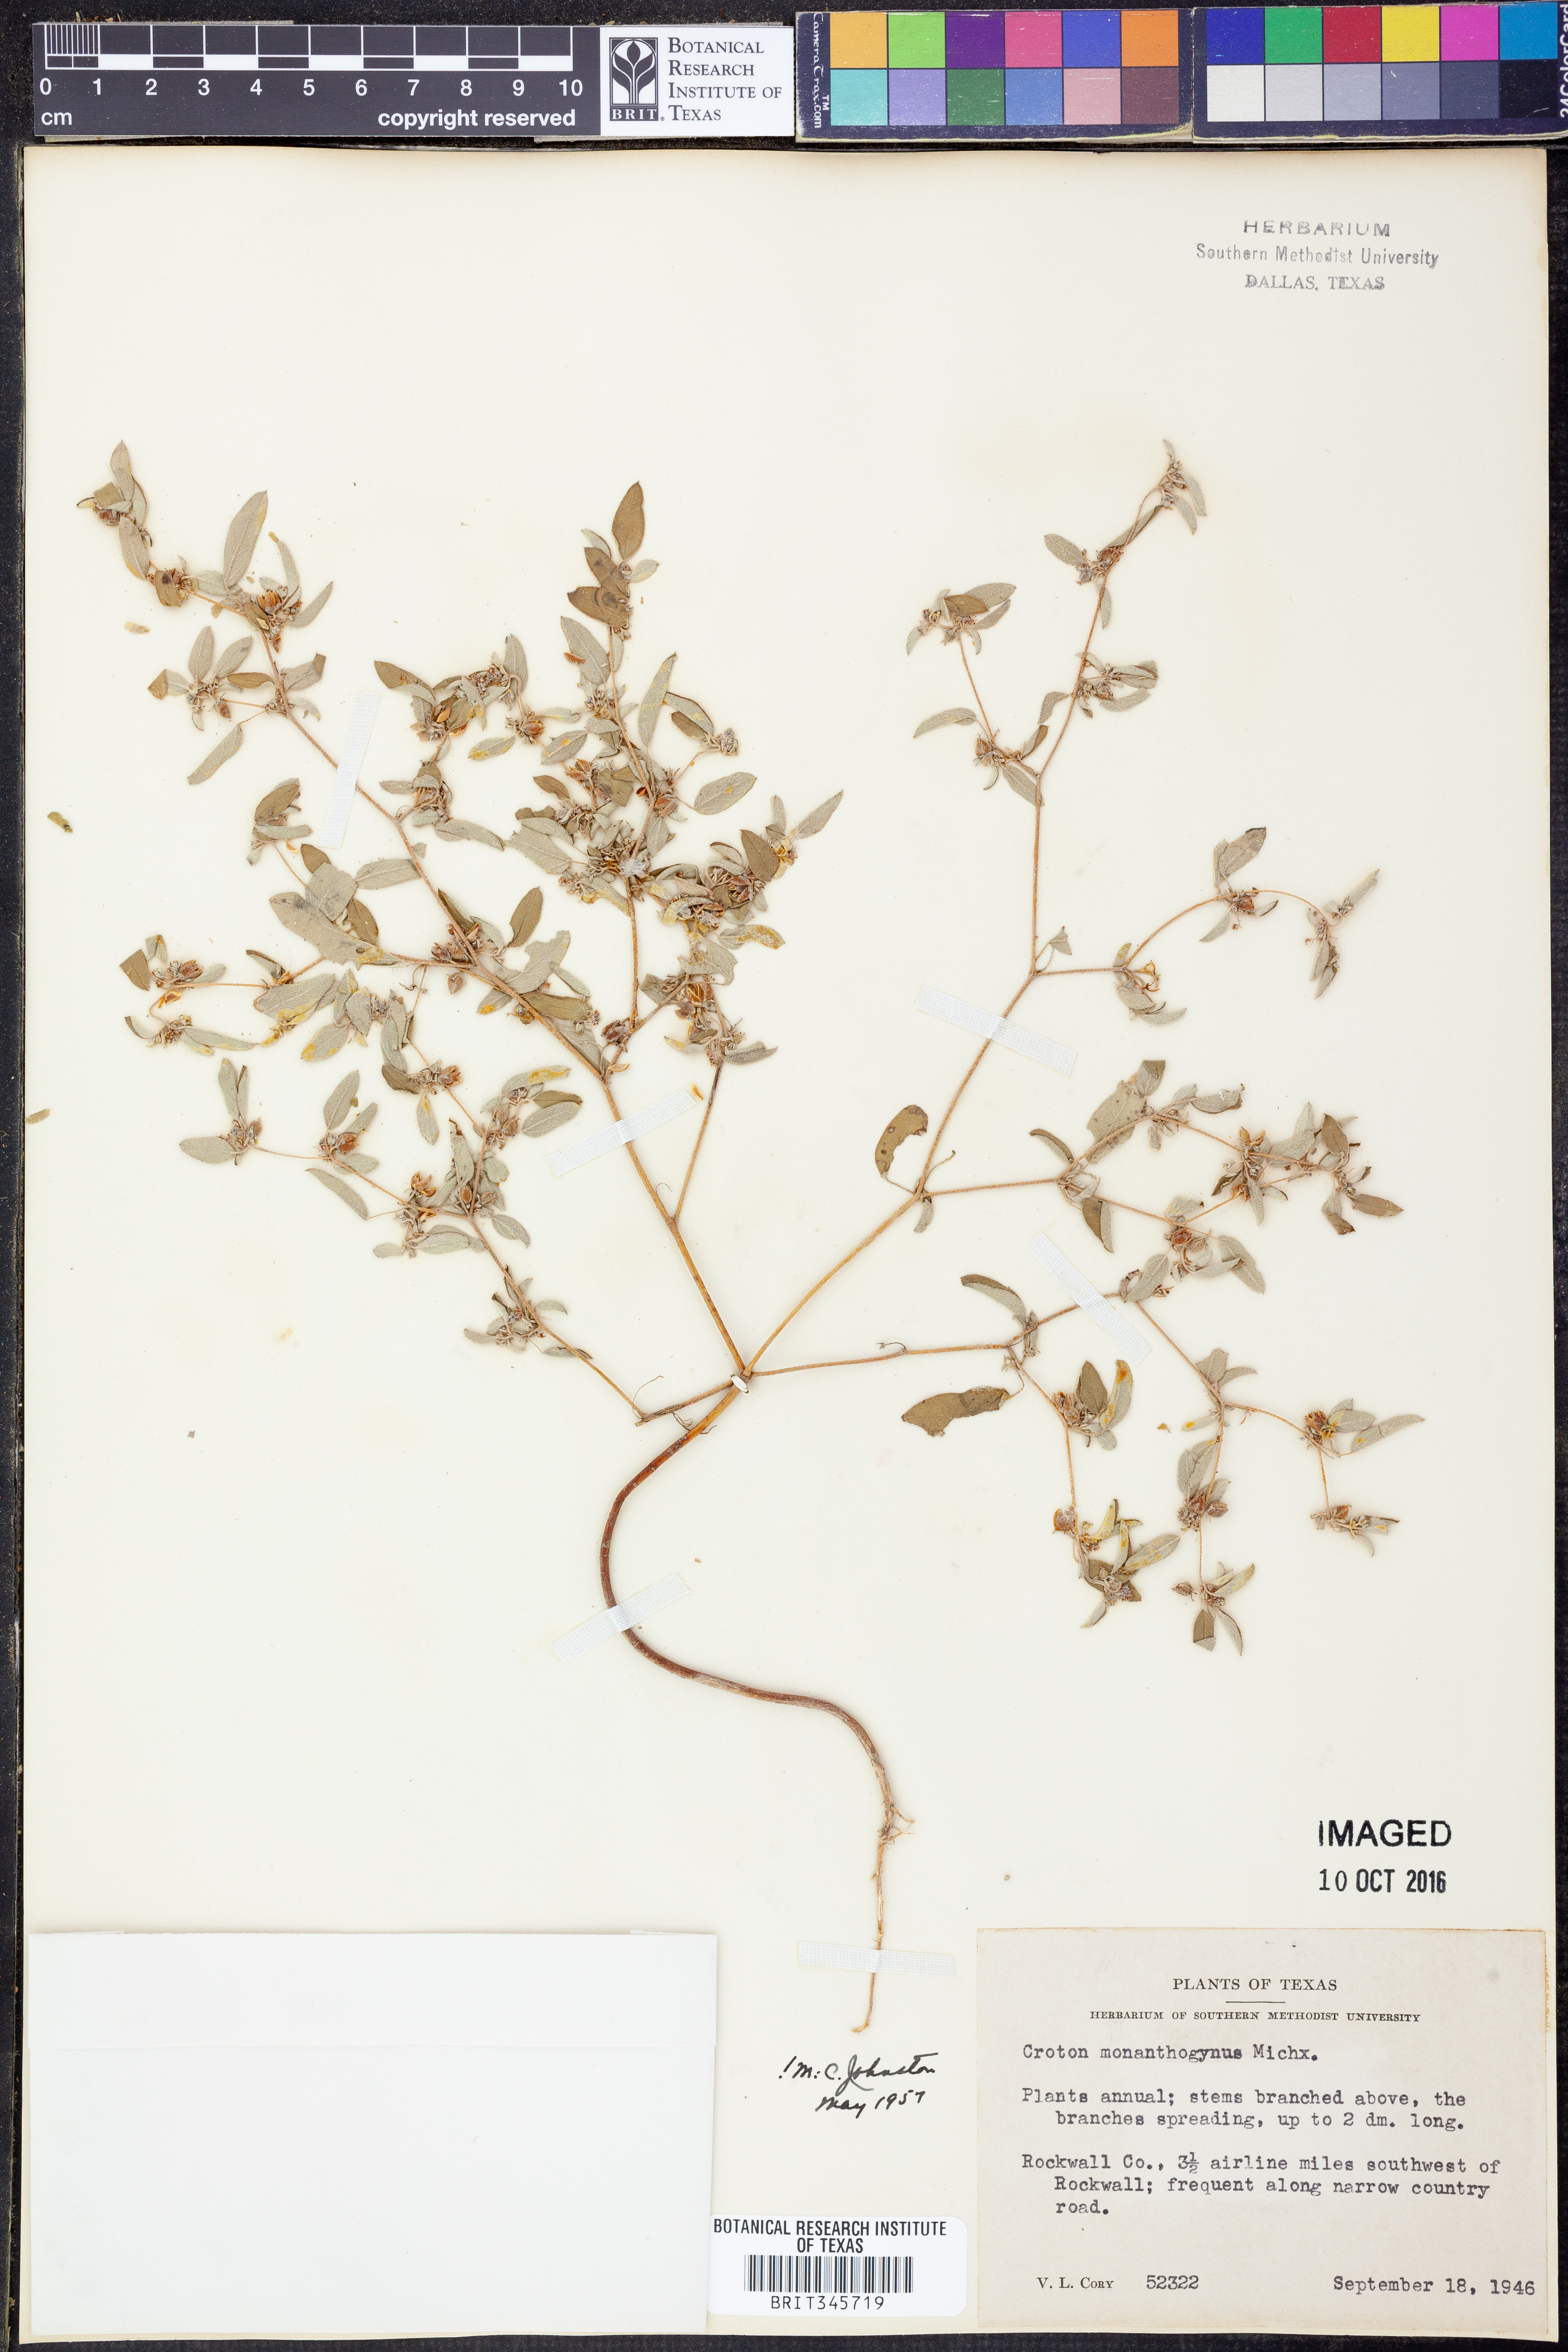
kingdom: Plantae
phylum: Tracheophyta
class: Magnoliopsida
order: Malpighiales
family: Euphorbiaceae
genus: Croton
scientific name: Croton monanthogynus
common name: One-seed croton
